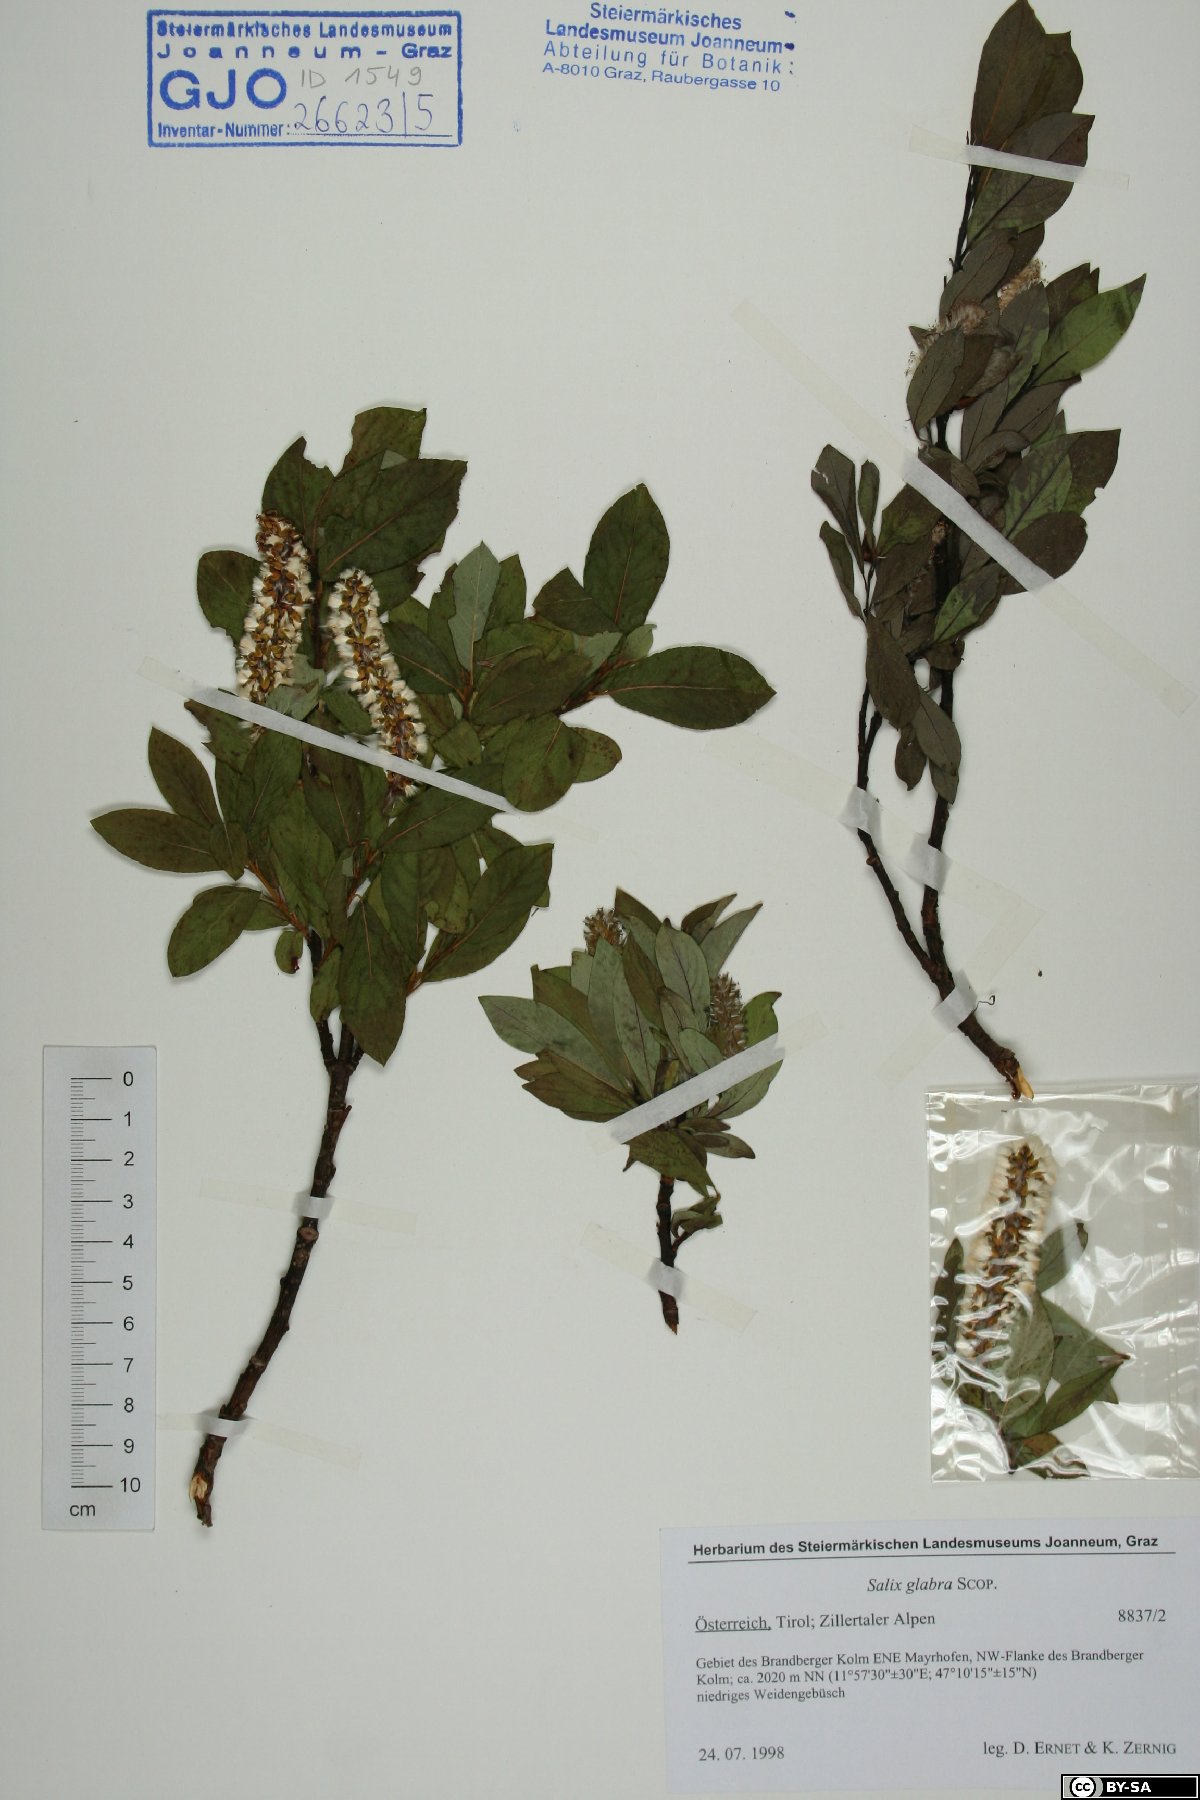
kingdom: Plantae
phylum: Tracheophyta
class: Magnoliopsida
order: Malpighiales
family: Salicaceae
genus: Salix
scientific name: Salix glabra
